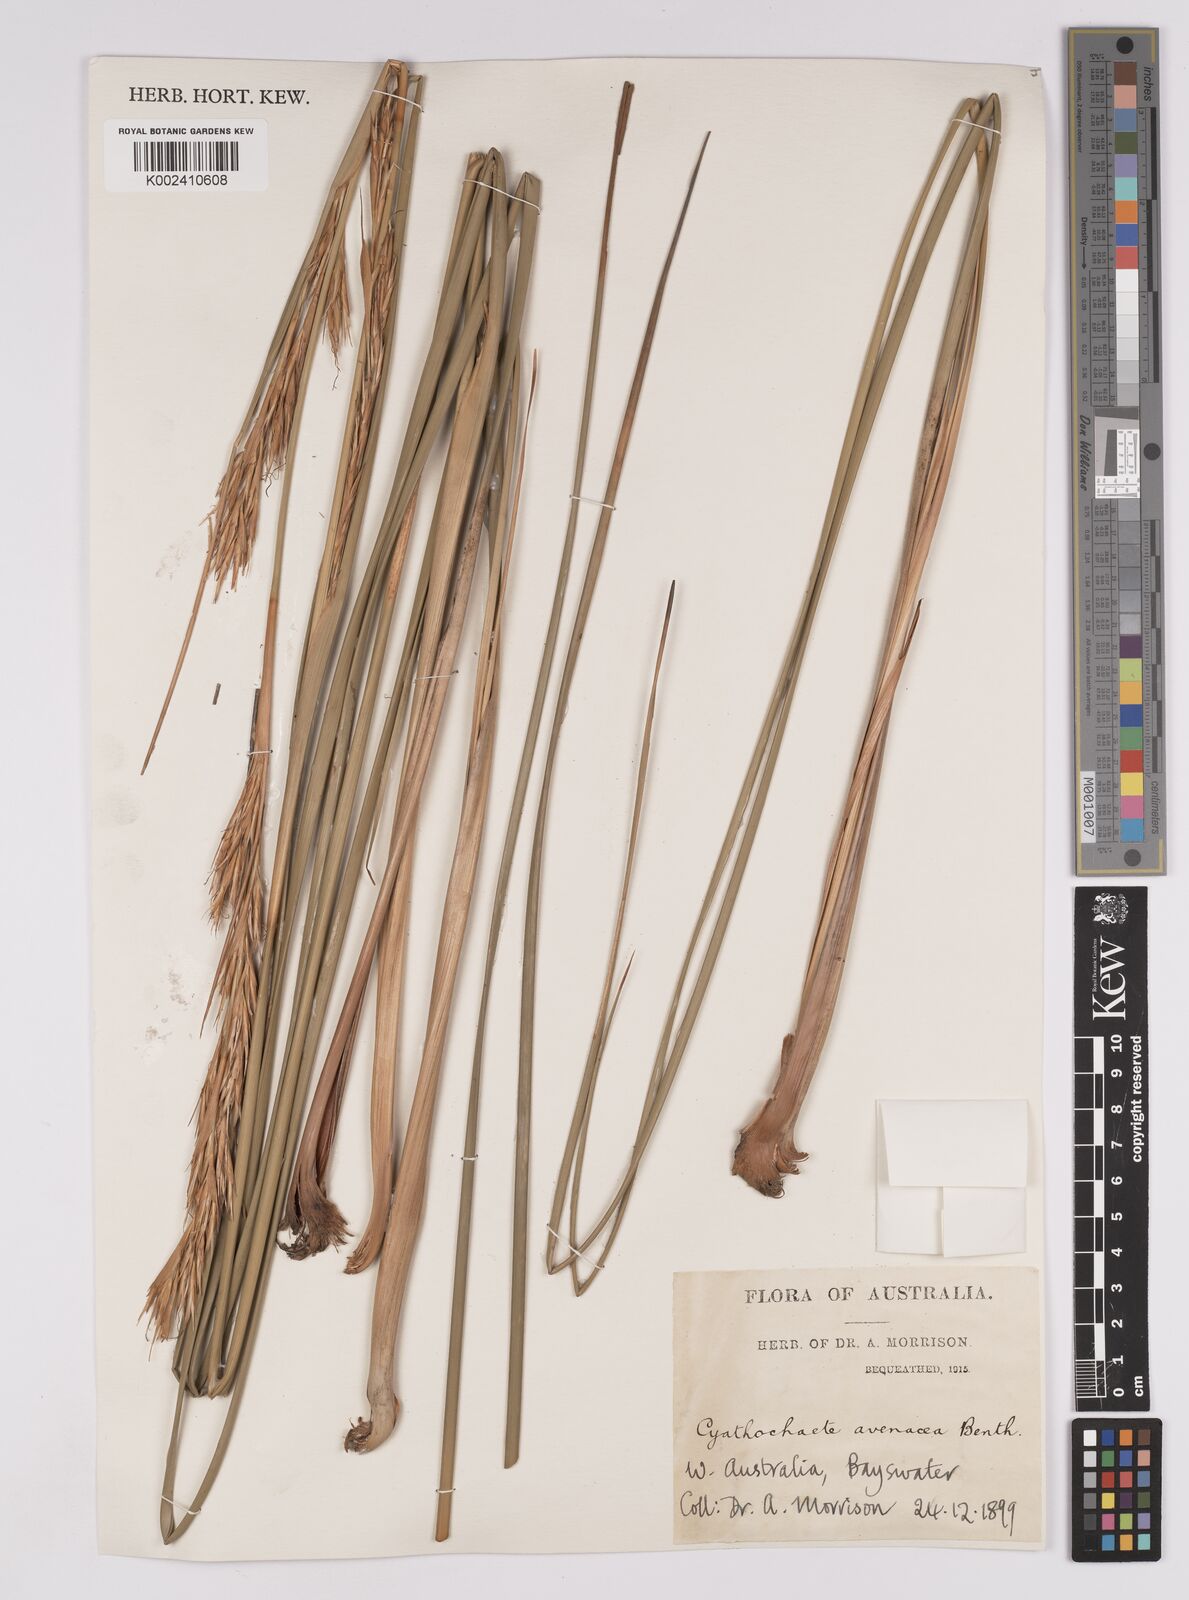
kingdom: Plantae
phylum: Tracheophyta
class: Liliopsida
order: Poales
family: Cyperaceae
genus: Cyathochaeta
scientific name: Cyathochaeta avenacea
